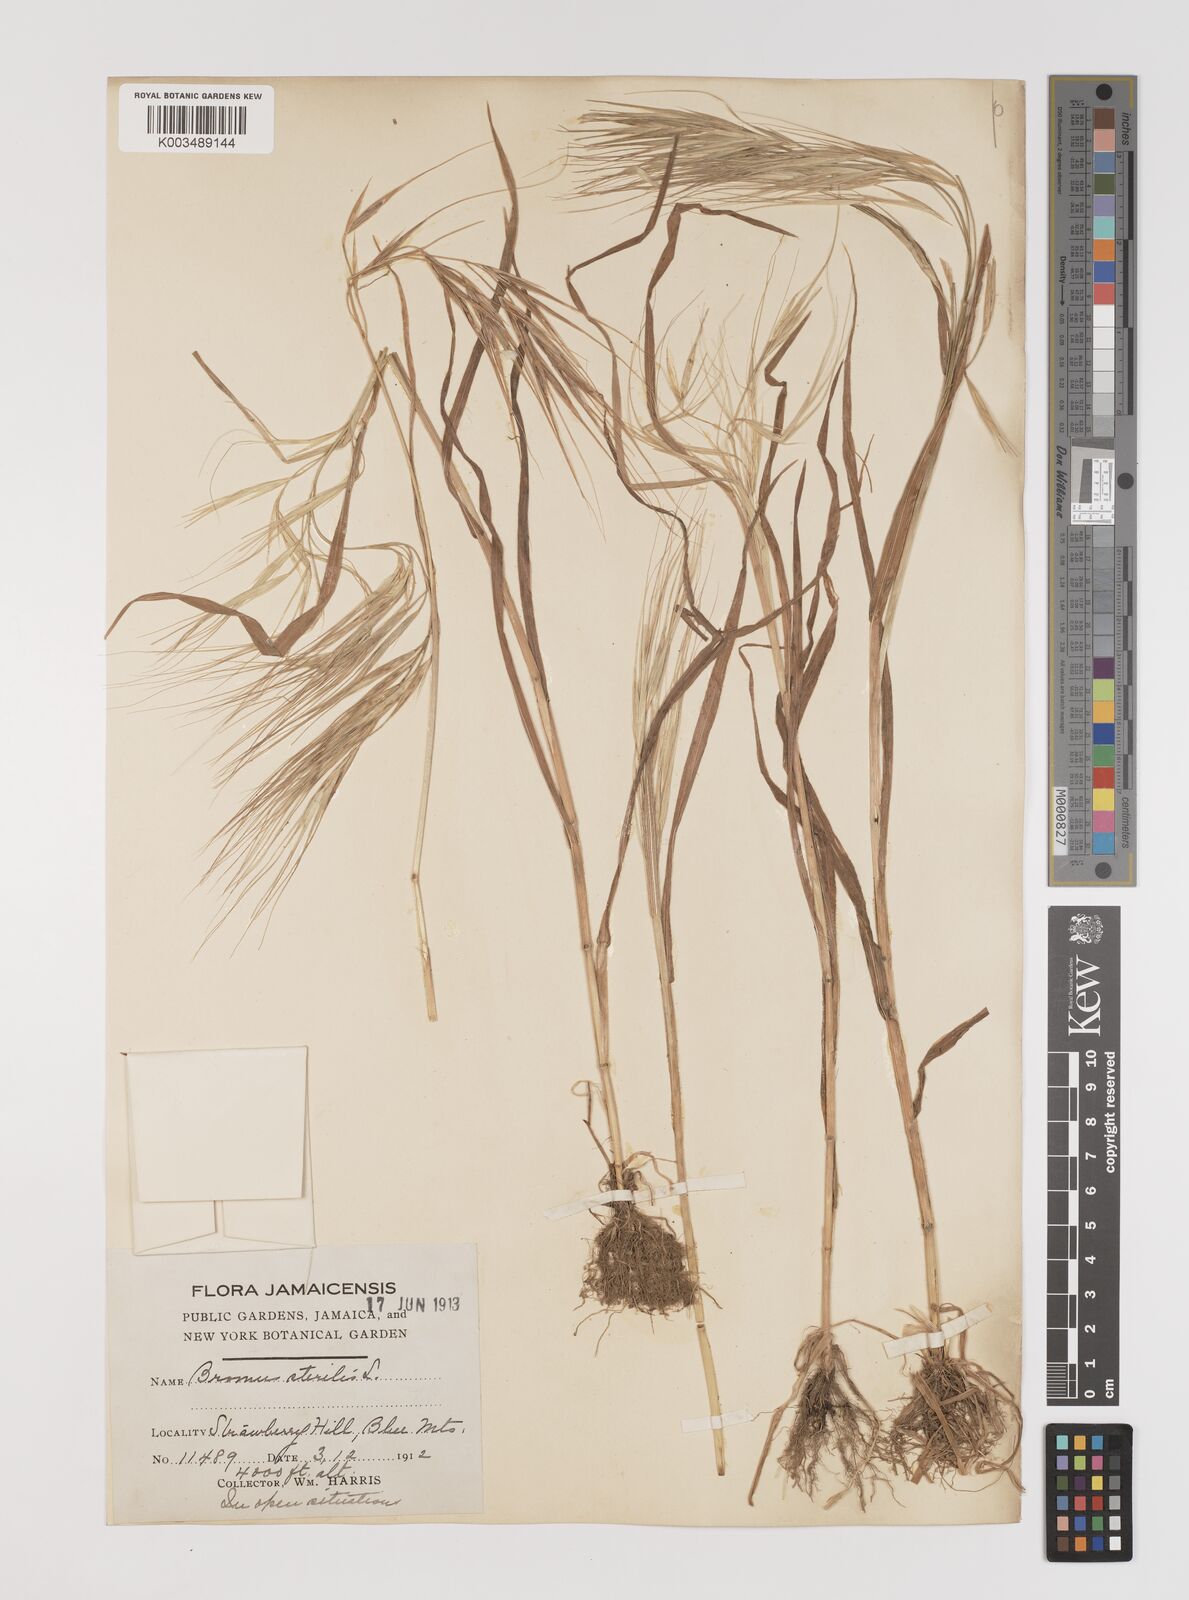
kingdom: Plantae
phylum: Tracheophyta
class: Liliopsida
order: Poales
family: Poaceae
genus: Bromus
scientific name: Bromus
